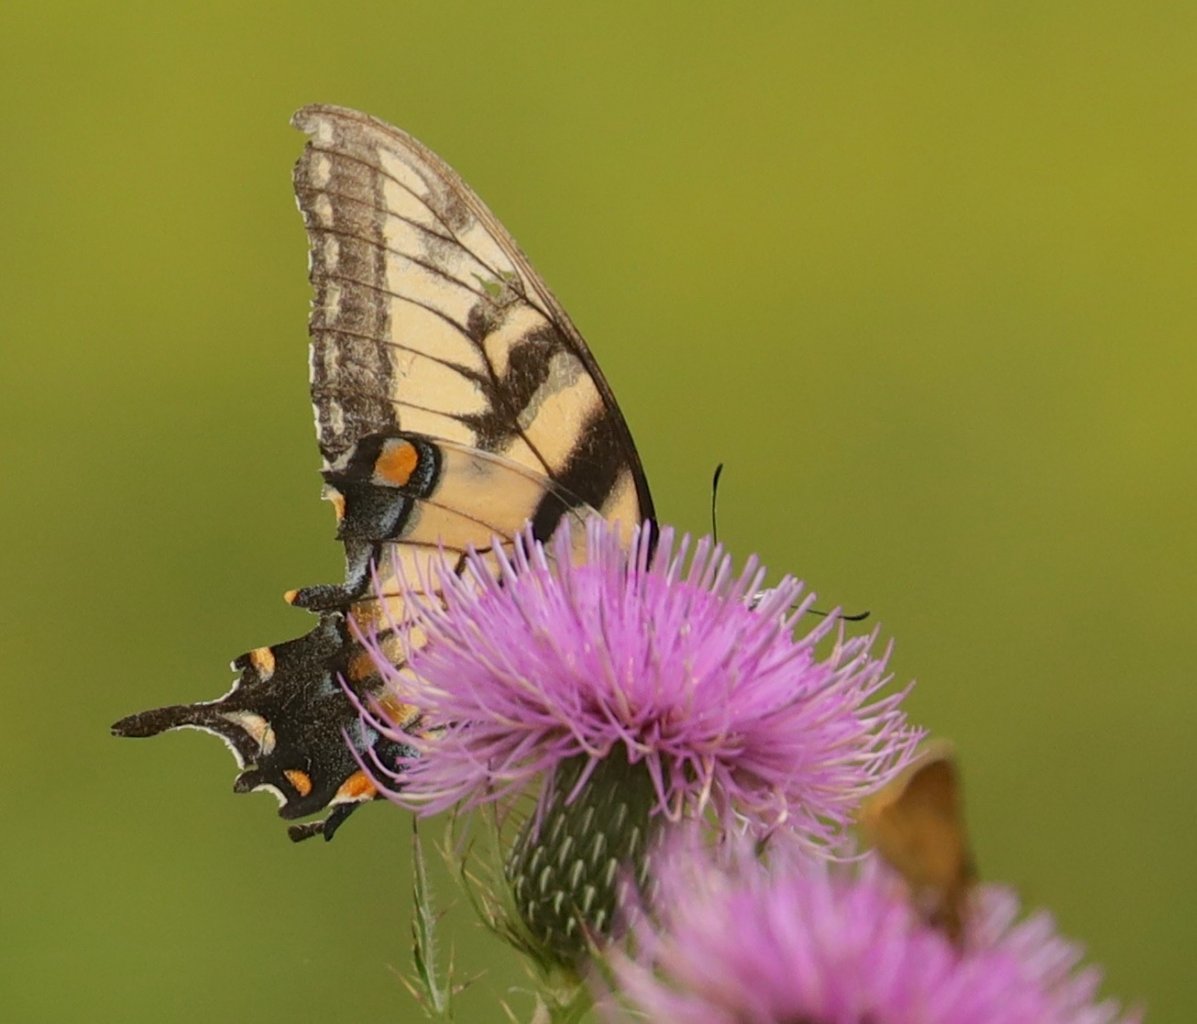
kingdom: Animalia
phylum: Arthropoda
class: Insecta
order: Lepidoptera
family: Papilionidae
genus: Pterourus
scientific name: Pterourus glaucus
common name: Eastern Tiger Swallowtail
